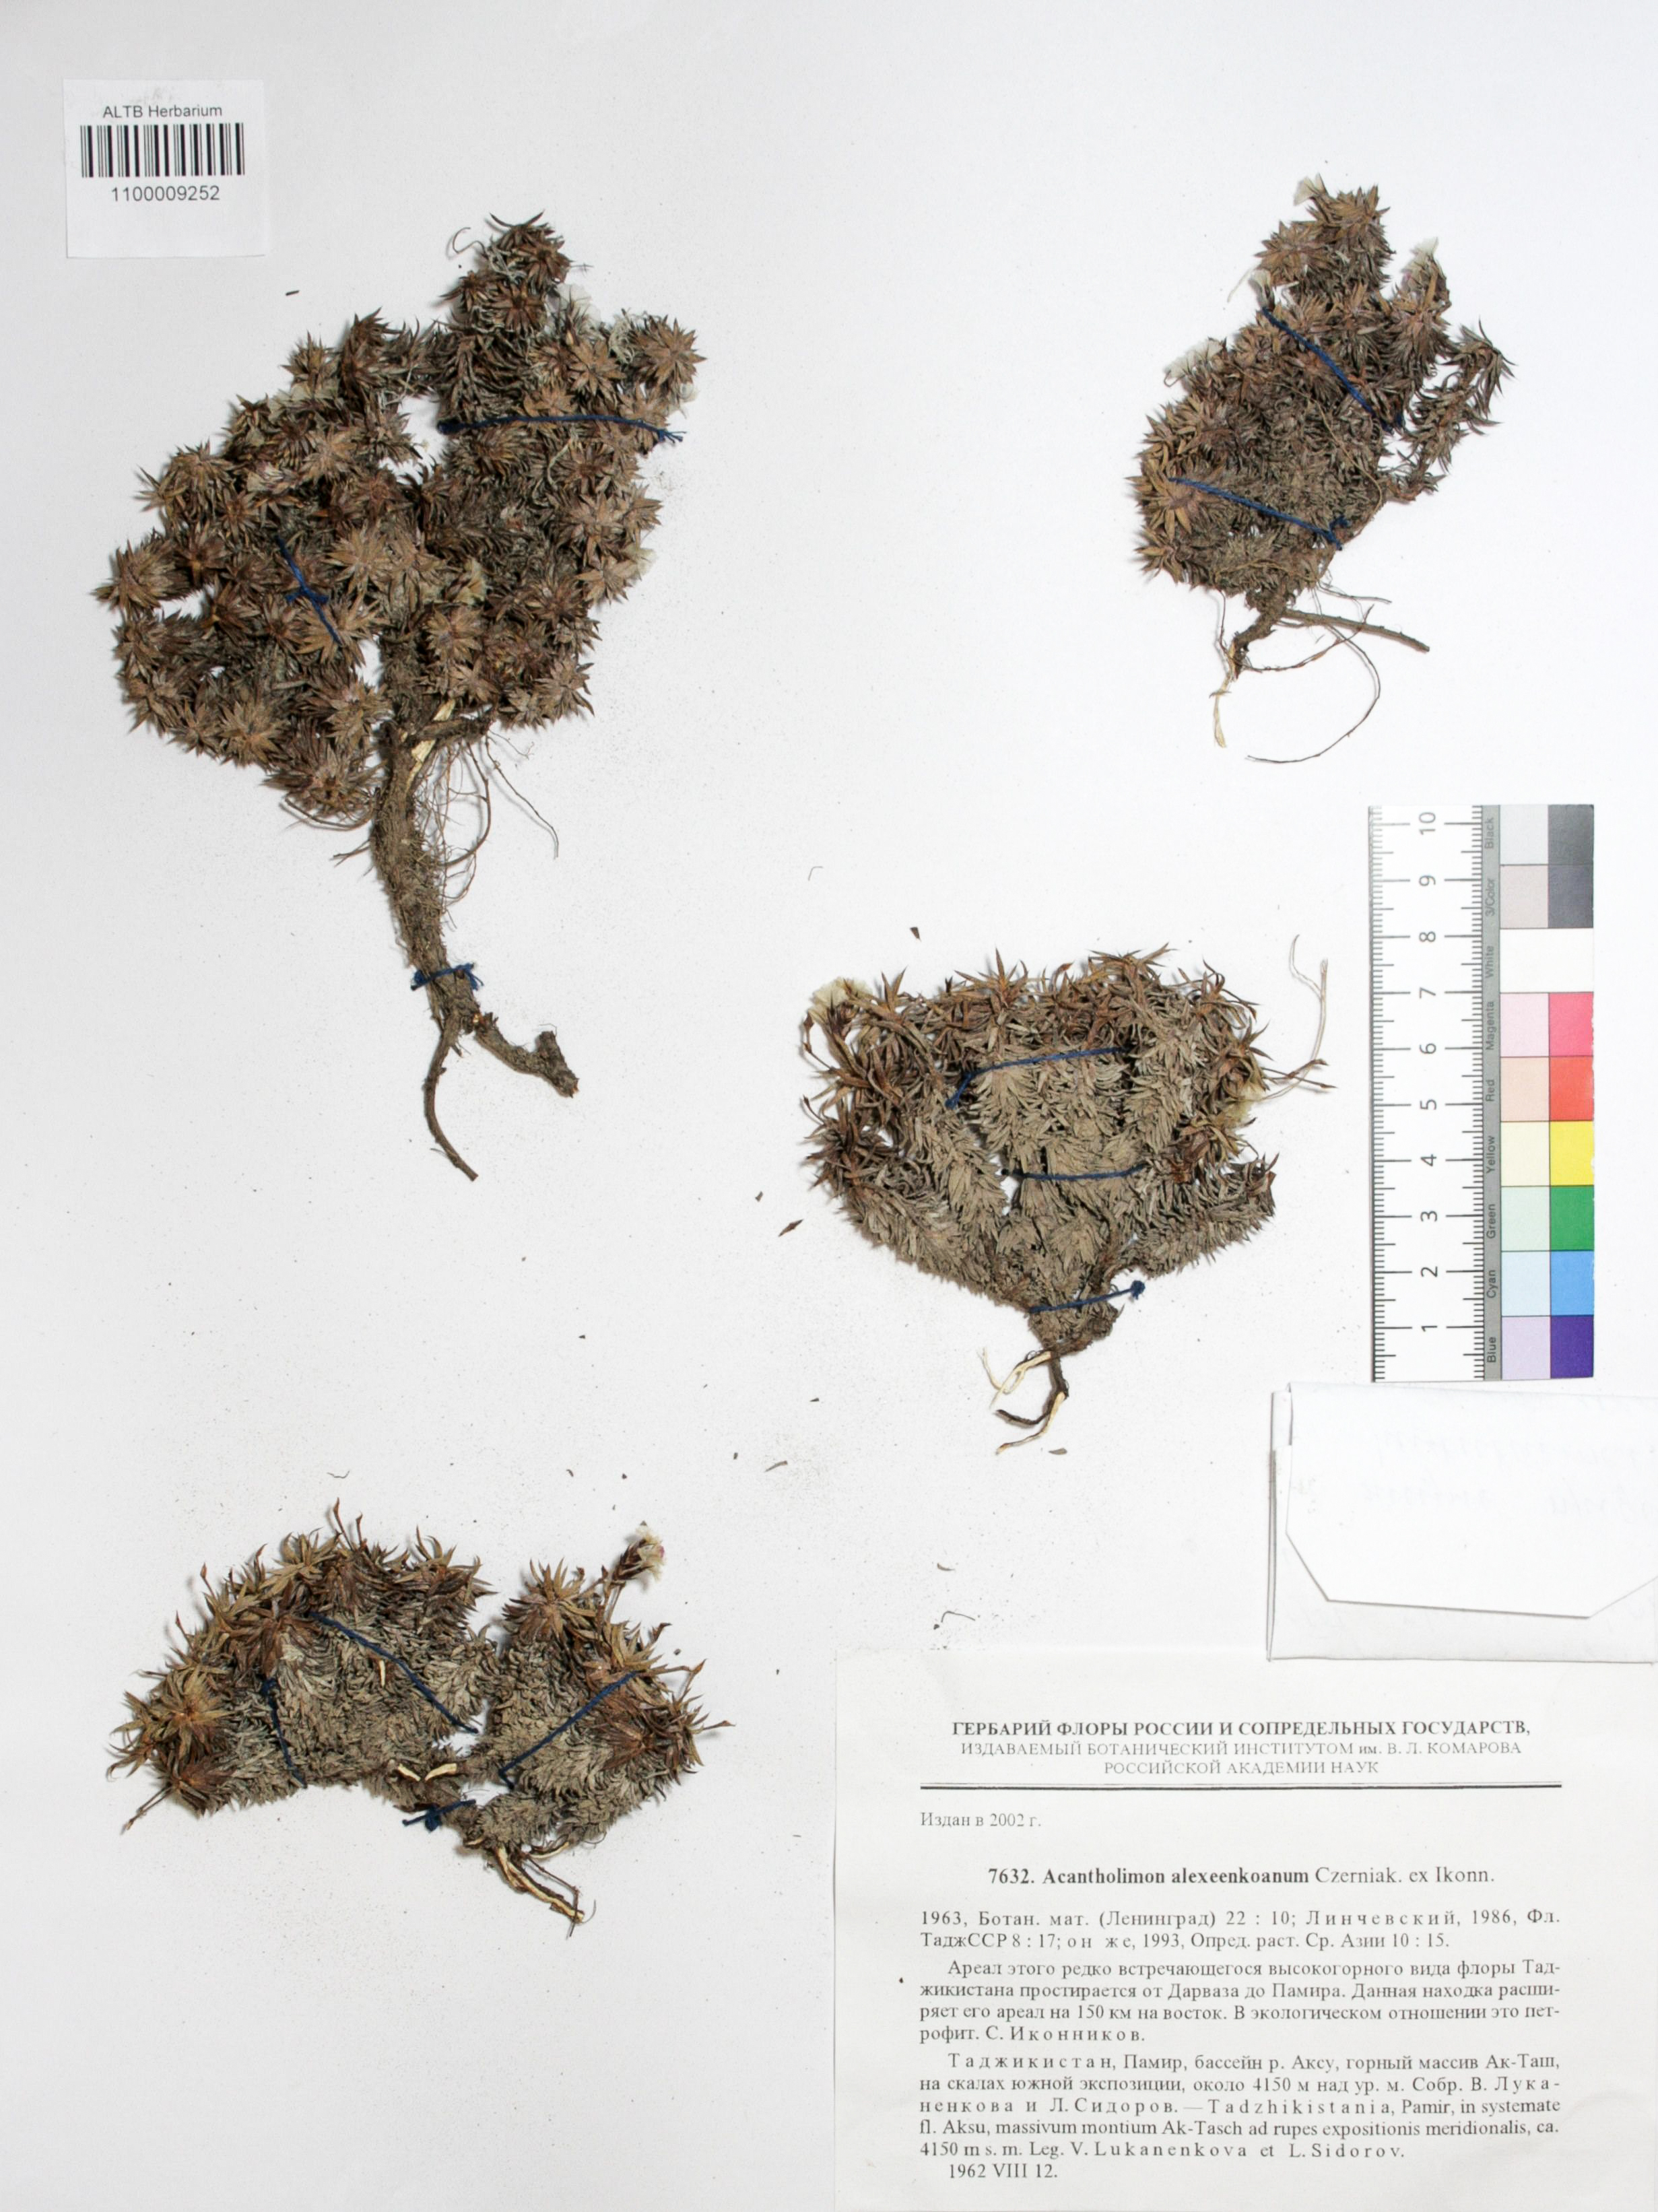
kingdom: Plantae
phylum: Tracheophyta
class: Magnoliopsida
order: Caryophyllales
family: Plumbaginaceae
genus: Acantholimon
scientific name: Acantholimon alexeenkoanum
